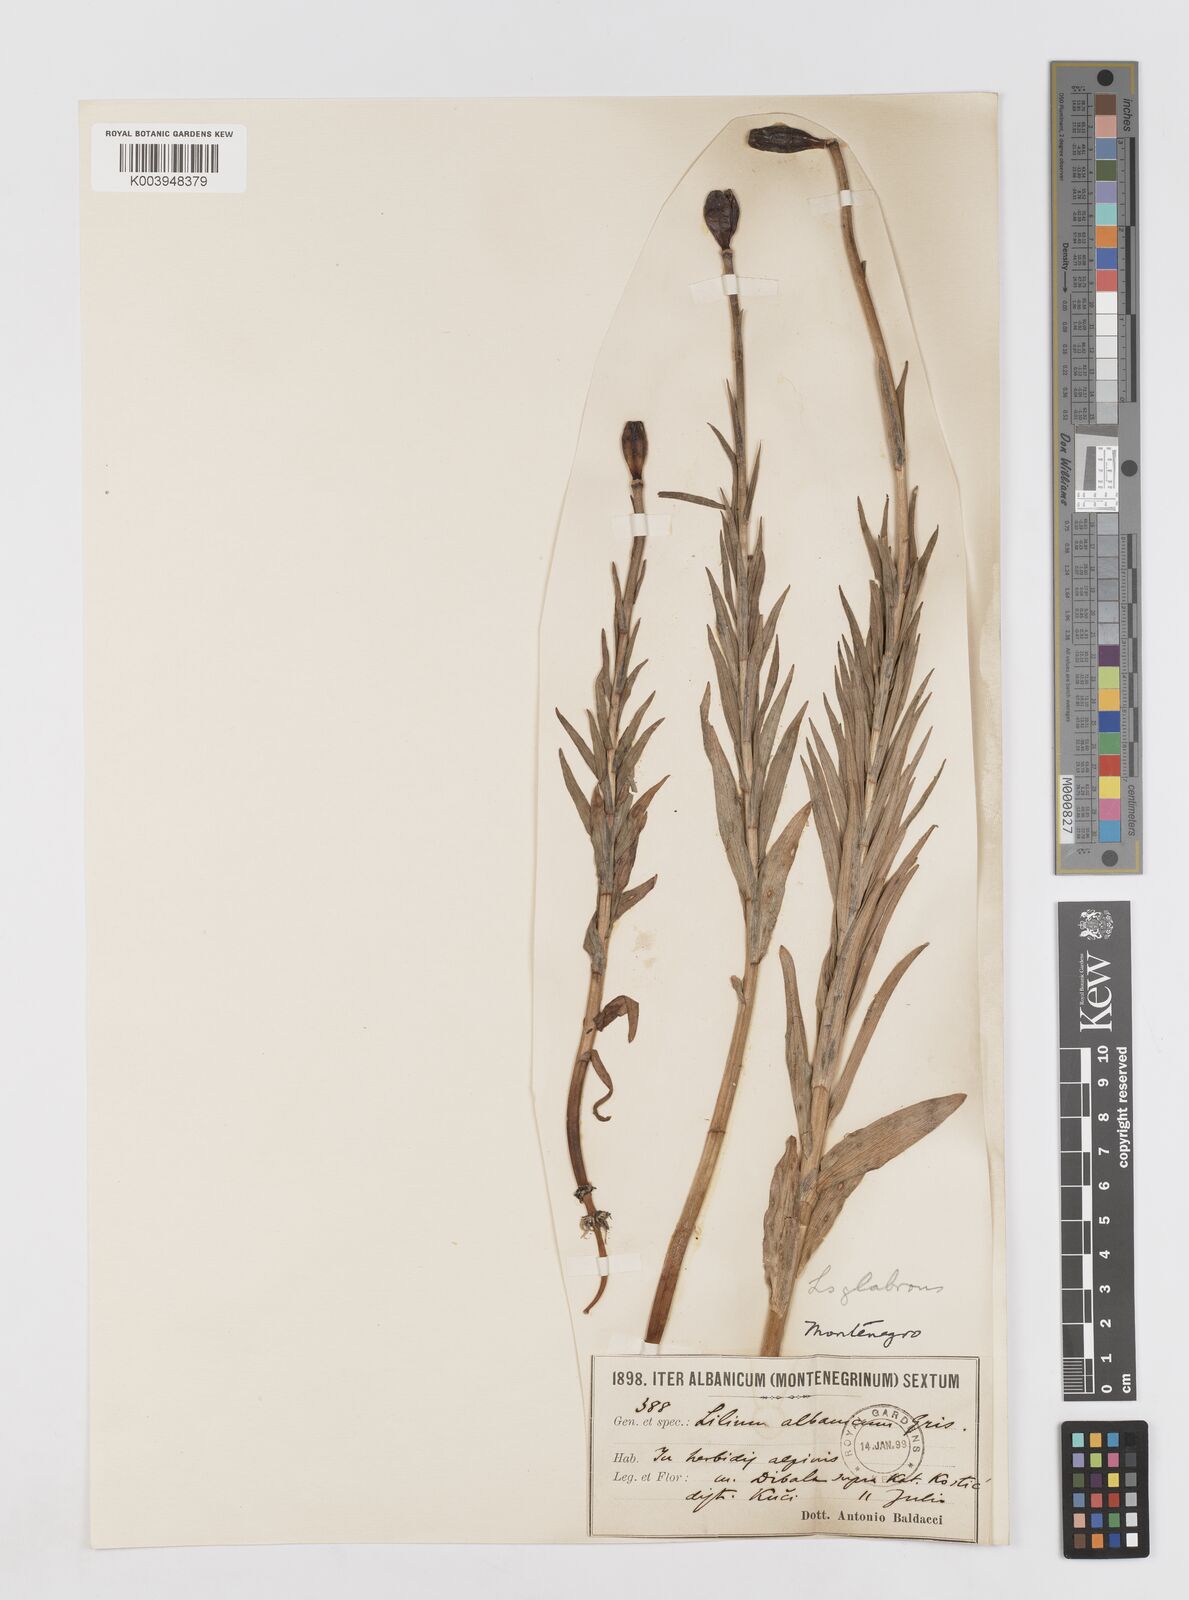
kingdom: Plantae
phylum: Tracheophyta
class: Liliopsida
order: Liliales
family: Liliaceae
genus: Lilium
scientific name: Lilium
